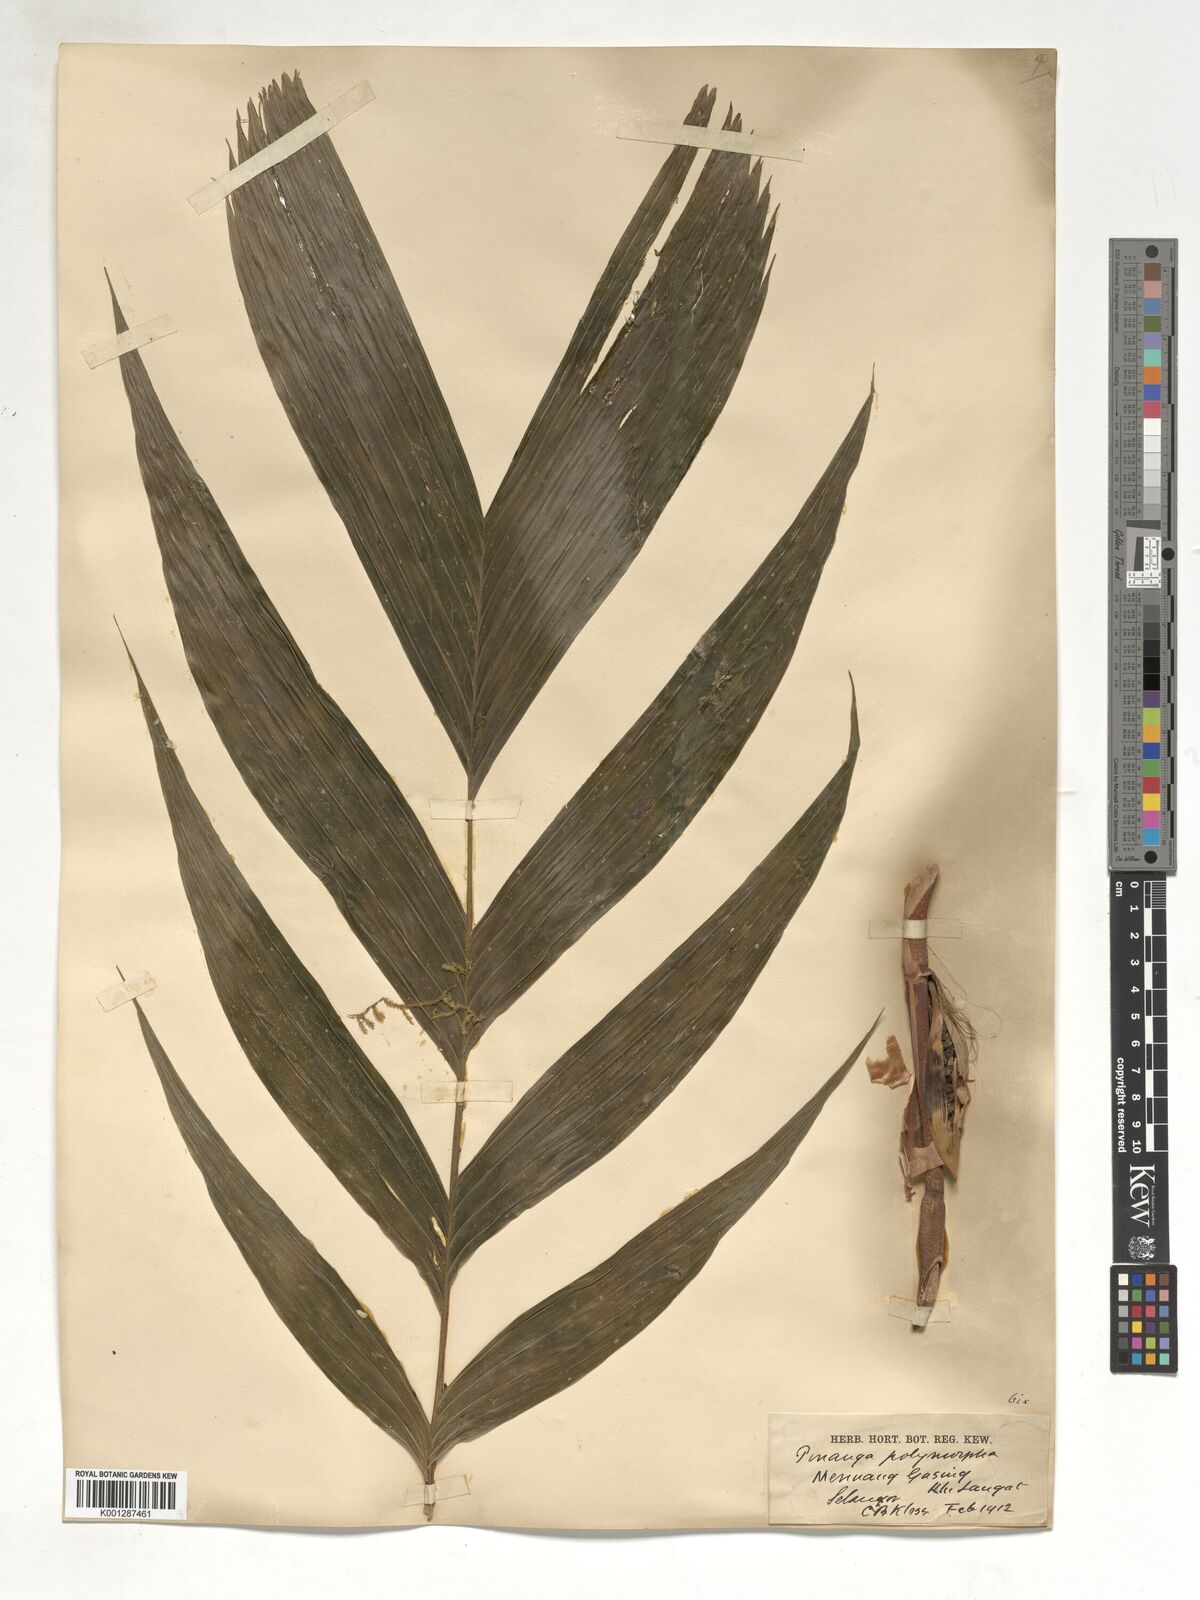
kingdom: Plantae
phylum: Tracheophyta
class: Liliopsida
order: Arecales
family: Arecaceae
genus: Pinanga
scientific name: Pinanga polymorpha
